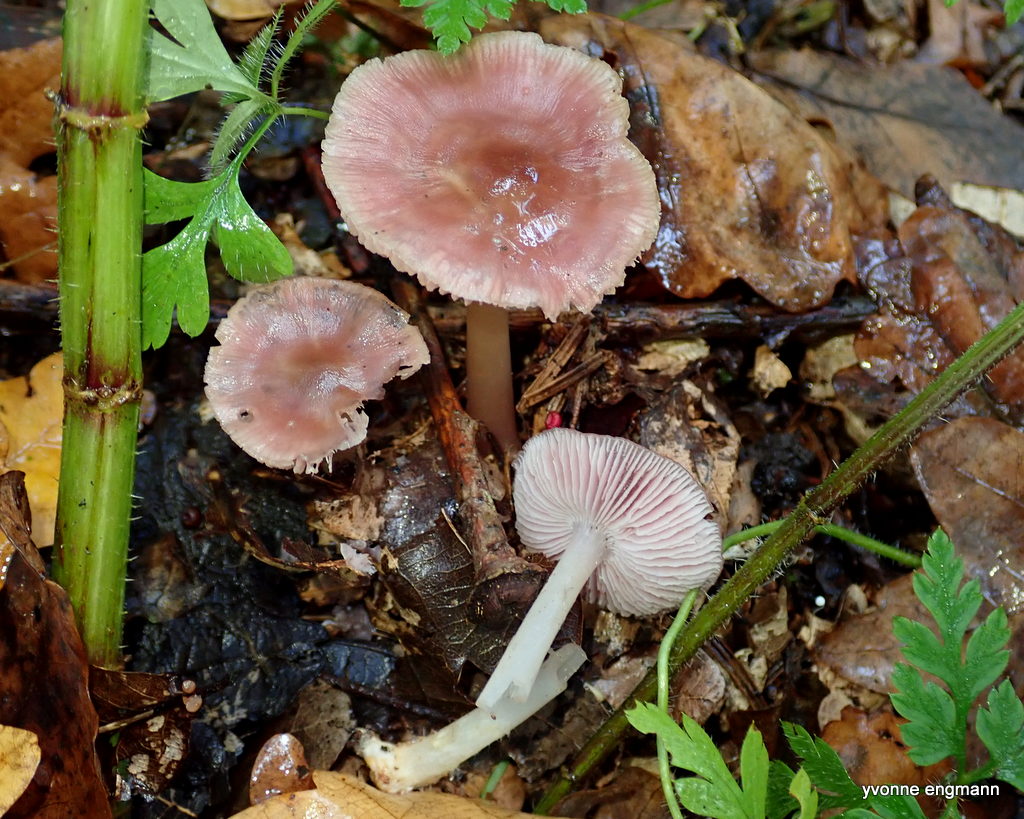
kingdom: Fungi
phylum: Basidiomycota
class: Agaricomycetes
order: Agaricales
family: Mycenaceae
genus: Mycena
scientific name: Mycena rosea
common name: rosa huesvamp
